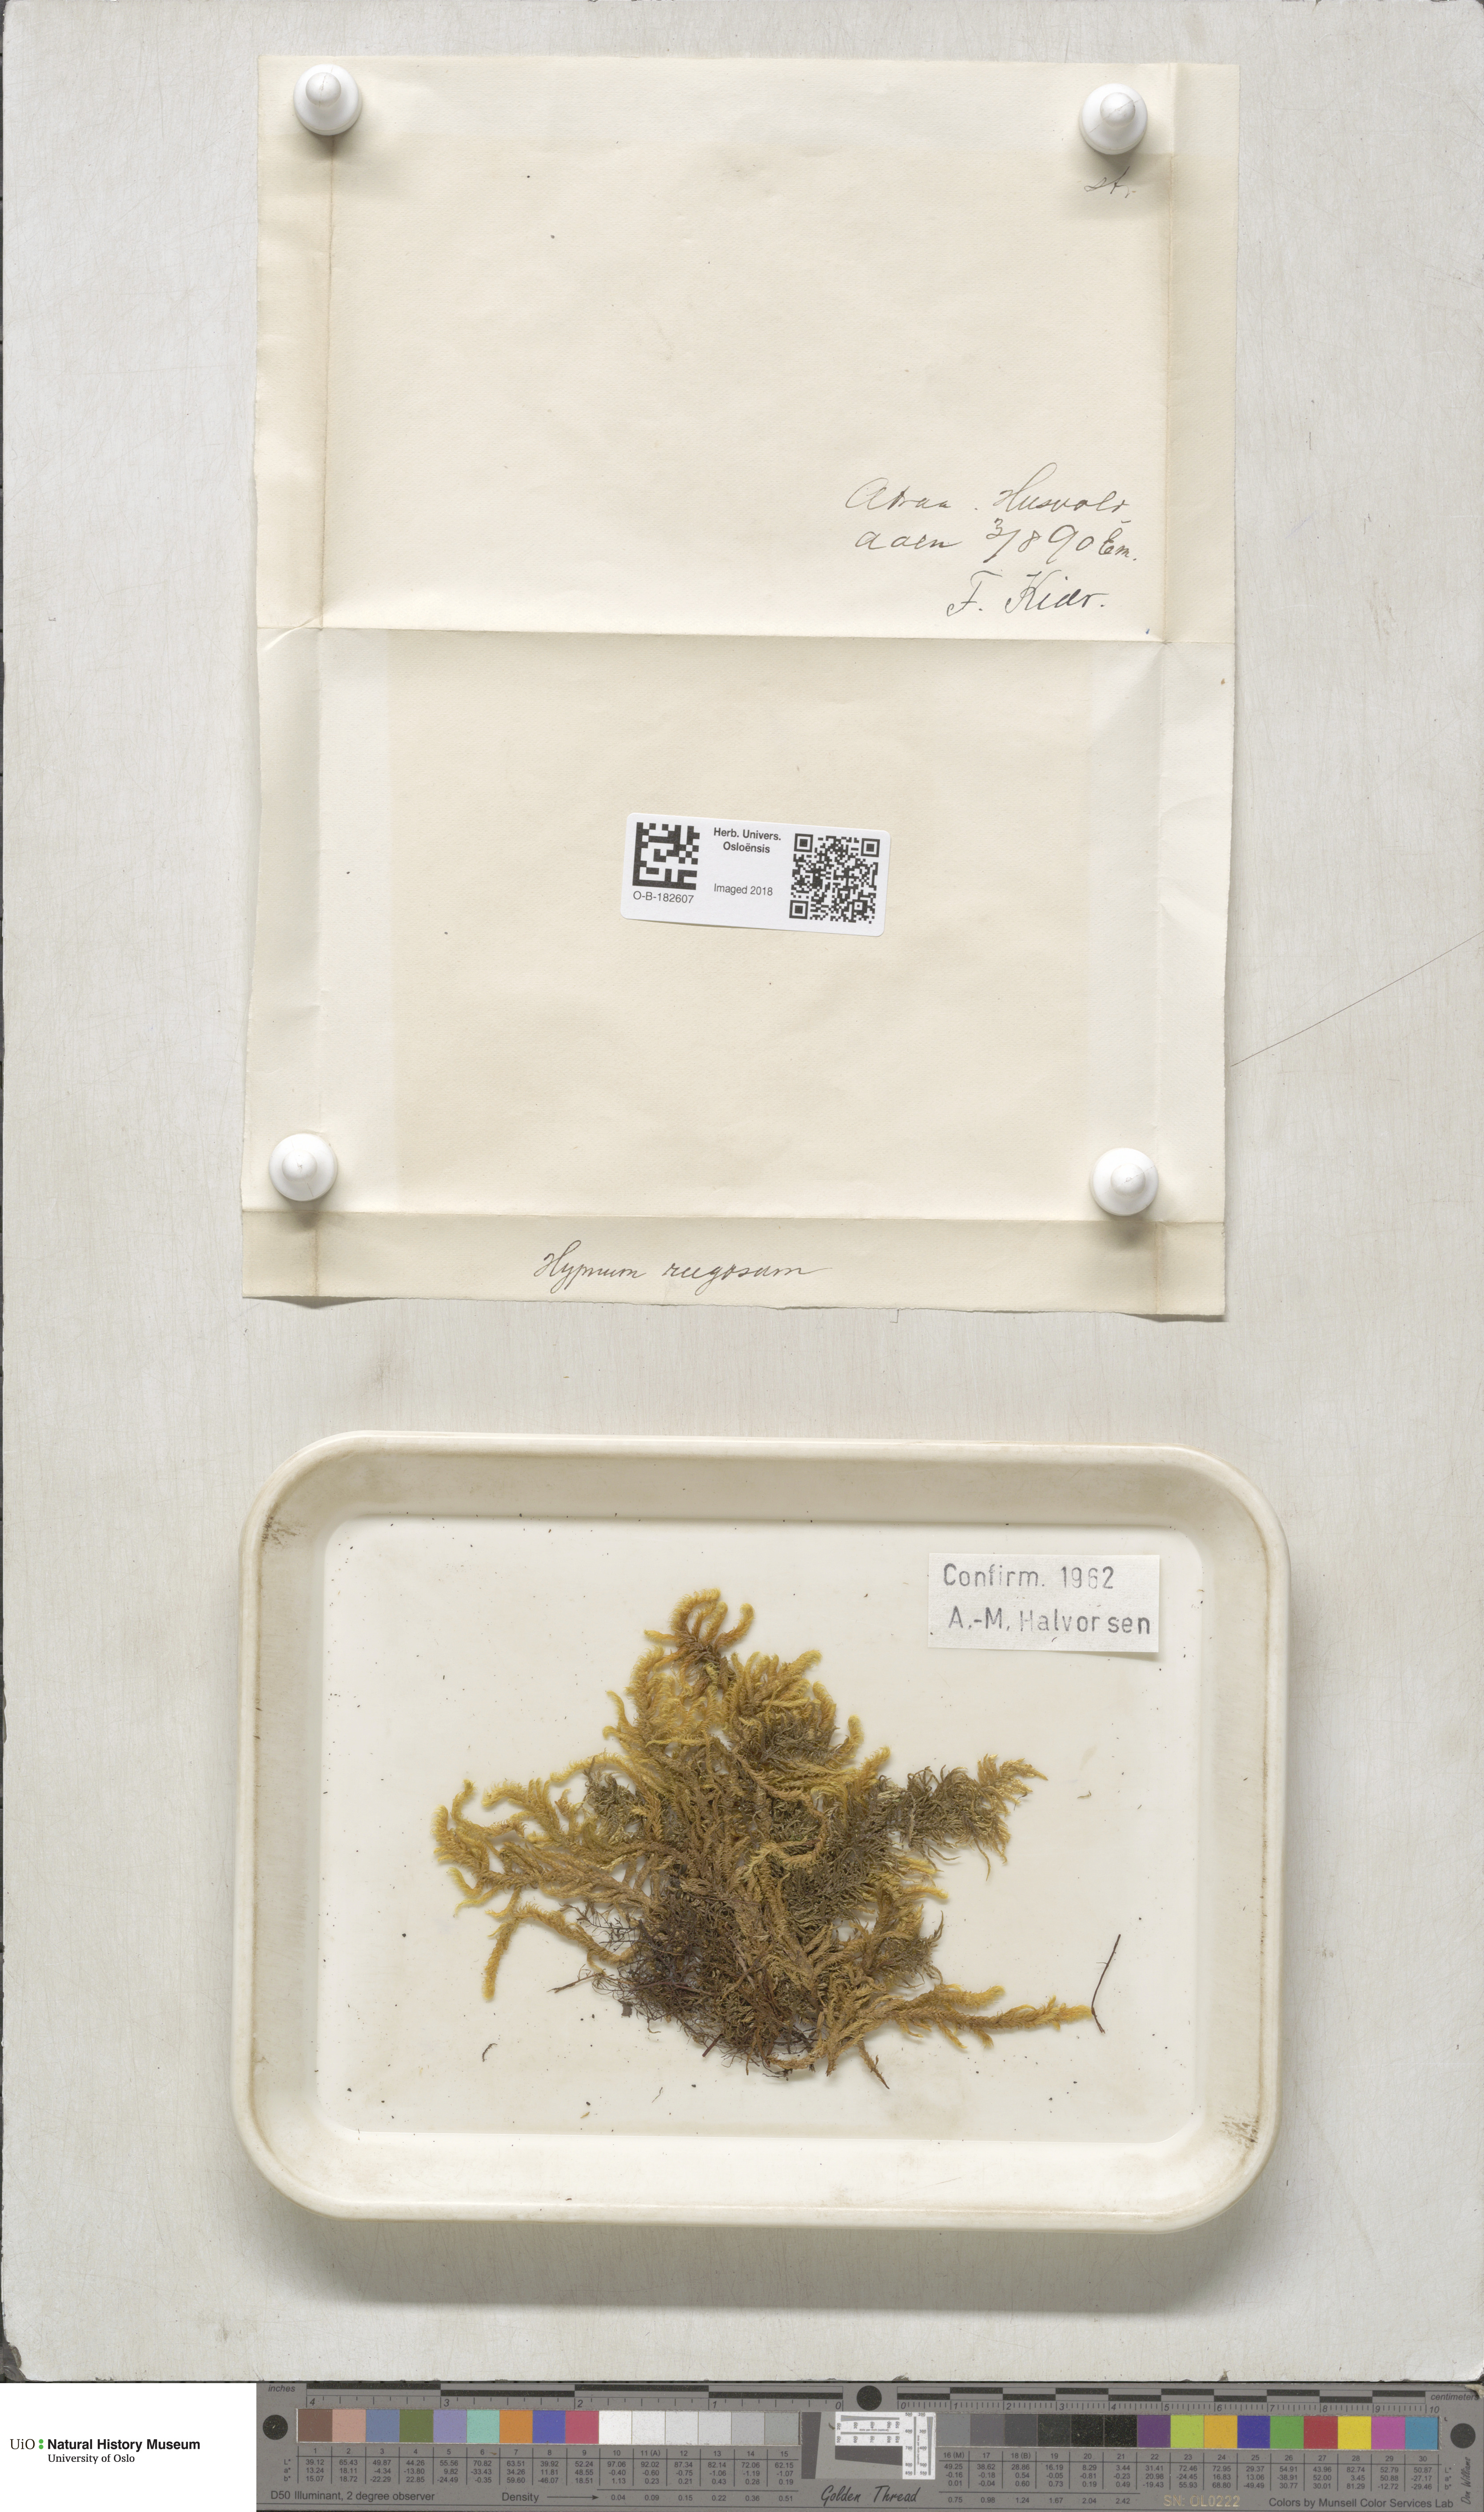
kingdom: Plantae
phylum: Bryophyta
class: Bryopsida
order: Hypnales
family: Rhytidiaceae
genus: Rhytidium
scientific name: Rhytidium rugosum
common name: Wrinkle-leaved moss
